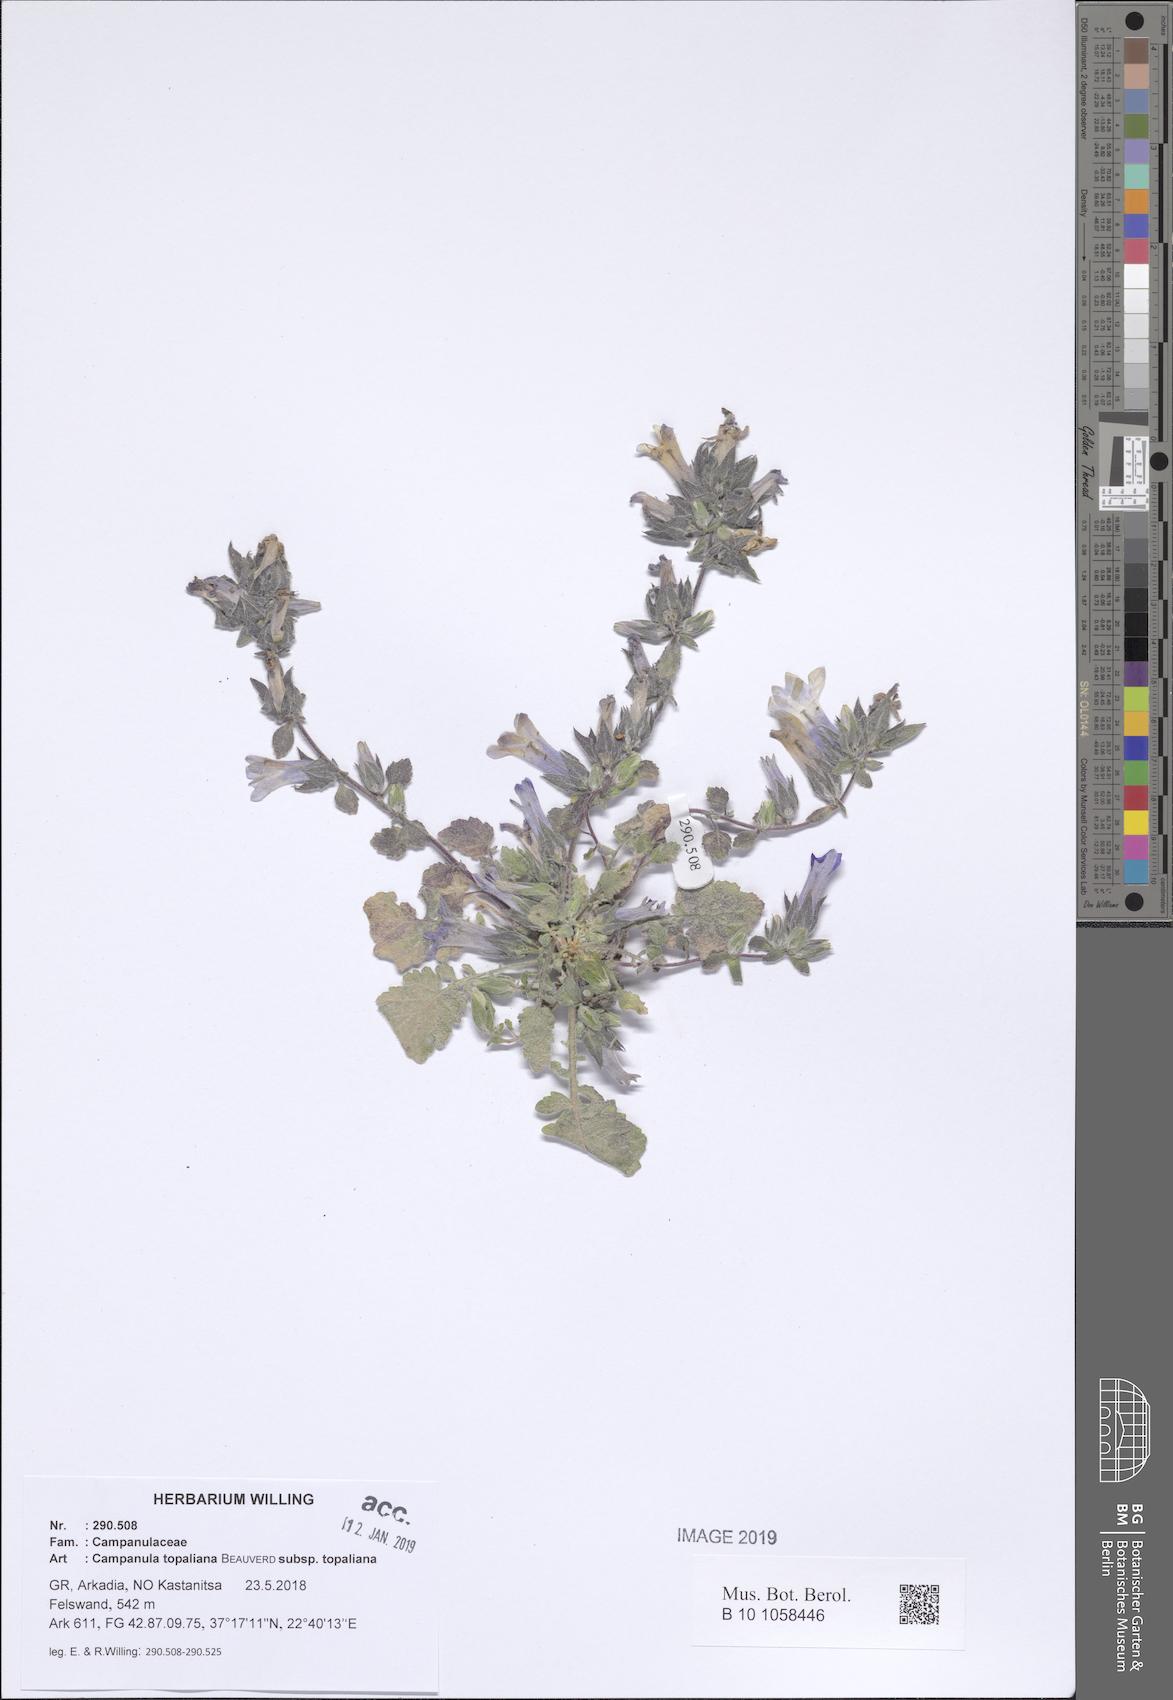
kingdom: Plantae
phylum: Tracheophyta
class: Magnoliopsida
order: Asterales
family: Campanulaceae
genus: Campanula
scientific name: Campanula topaliana
